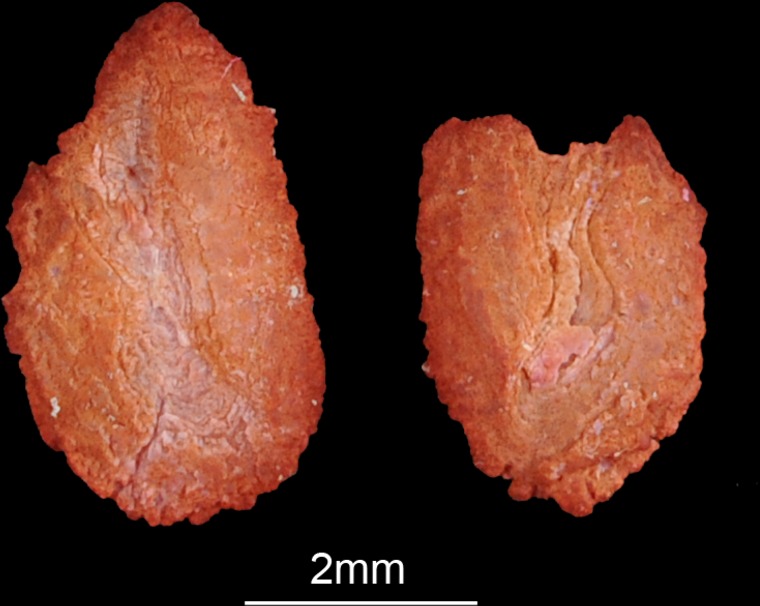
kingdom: Animalia
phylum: Chordata
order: Perciformes
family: Cichlidae
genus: Sargochromis
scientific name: Sargochromis carlottae
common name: Rainbow happy
